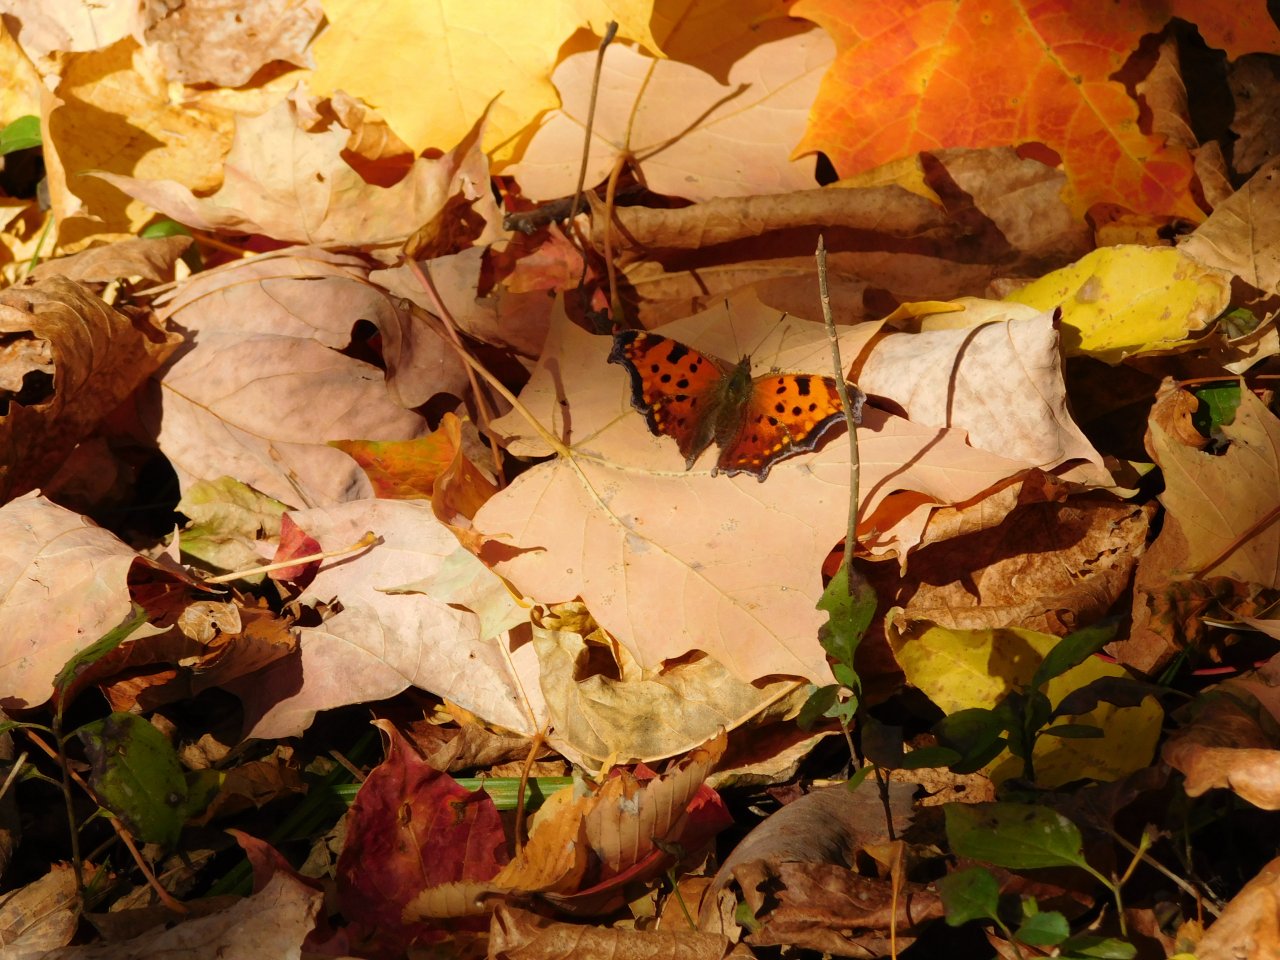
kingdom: Animalia
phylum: Arthropoda
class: Insecta
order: Lepidoptera
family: Nymphalidae
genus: Polygonia
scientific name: Polygonia comma
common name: Eastern Comma
